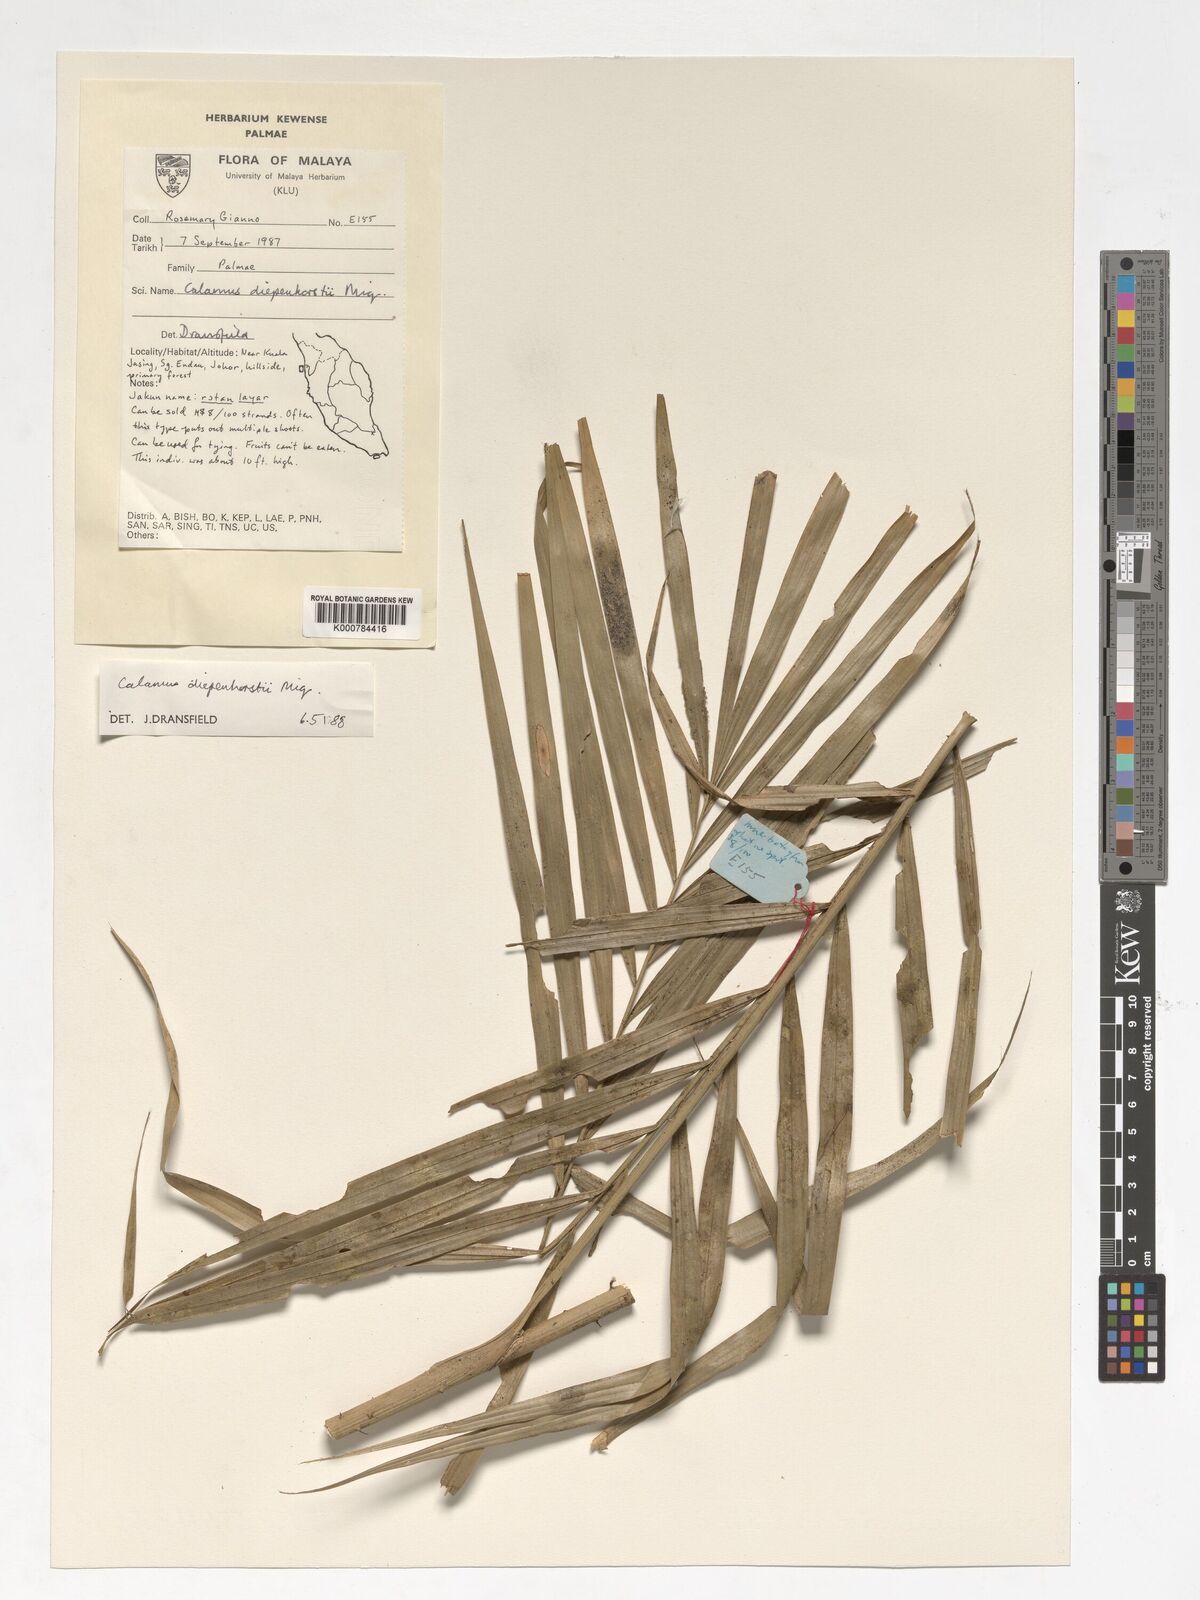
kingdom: Plantae
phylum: Tracheophyta
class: Liliopsida
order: Arecales
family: Arecaceae
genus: Calamus
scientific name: Calamus diepenhorstii
